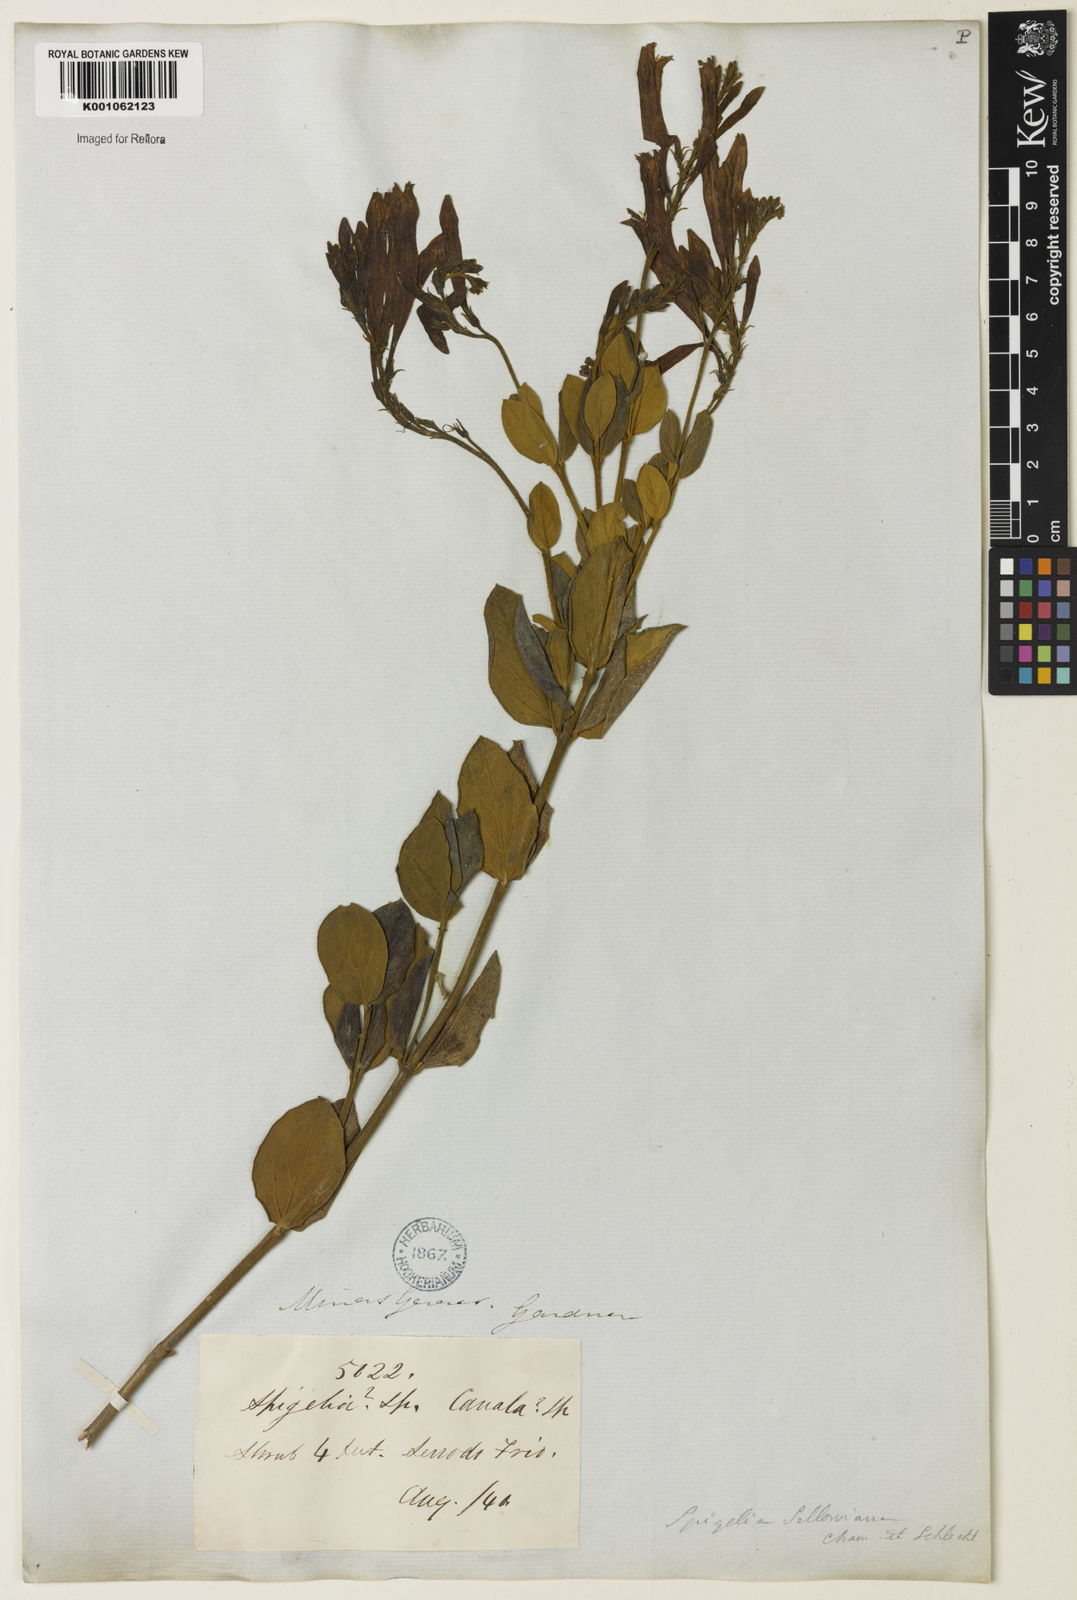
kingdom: Plantae
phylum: Tracheophyta
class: Magnoliopsida
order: Gentianales
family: Loganiaceae
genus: Spigelia
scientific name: Spigelia sellowiana
